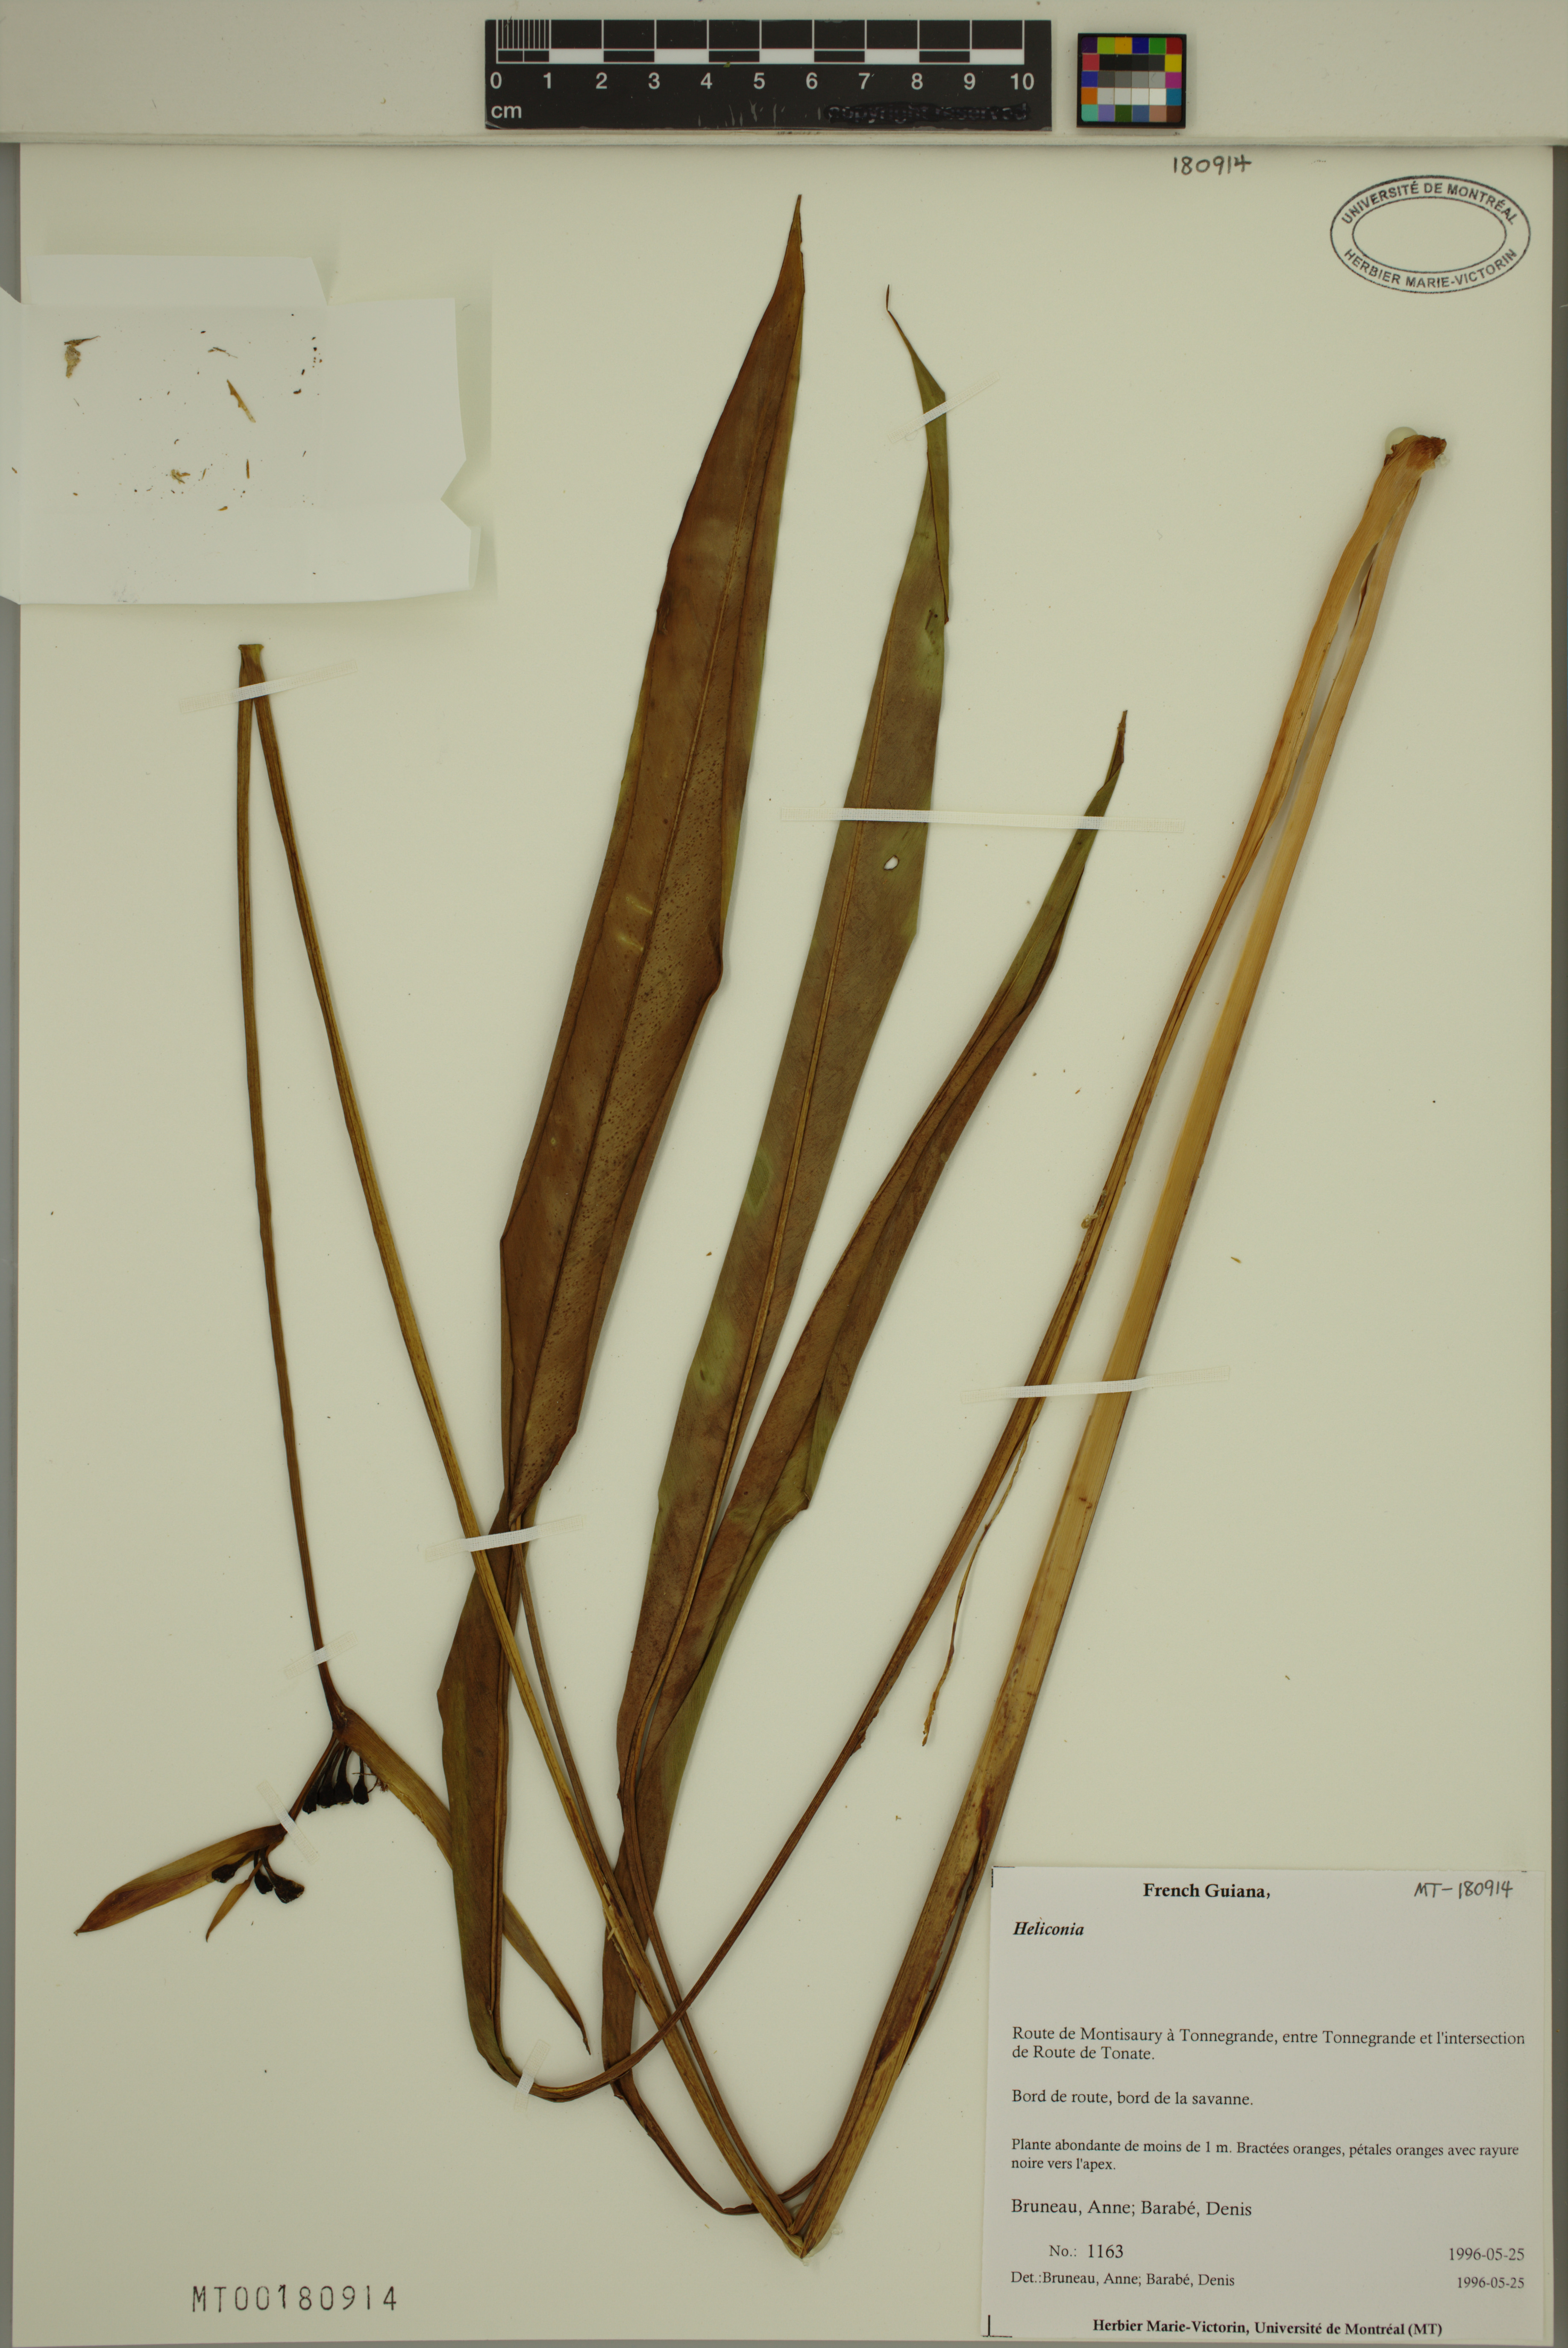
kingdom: Plantae
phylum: Tracheophyta
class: Liliopsida
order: Zingiberales
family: Heliconiaceae
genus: Heliconia
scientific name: Heliconia
